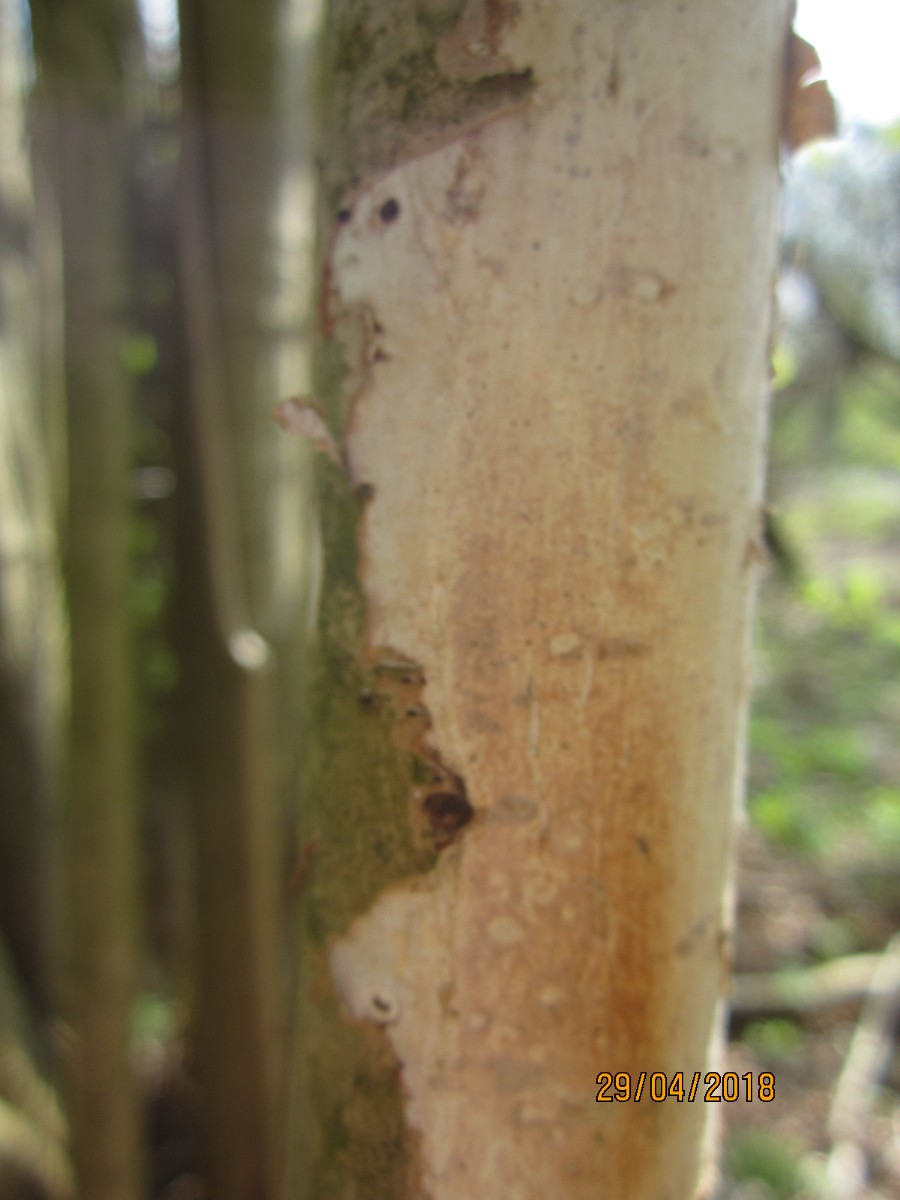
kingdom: Fungi
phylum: Basidiomycota
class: Agaricomycetes
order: Corticiales
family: Vuilleminiaceae
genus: Vuilleminia
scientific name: Vuilleminia coryli
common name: hassel-barksprænger
